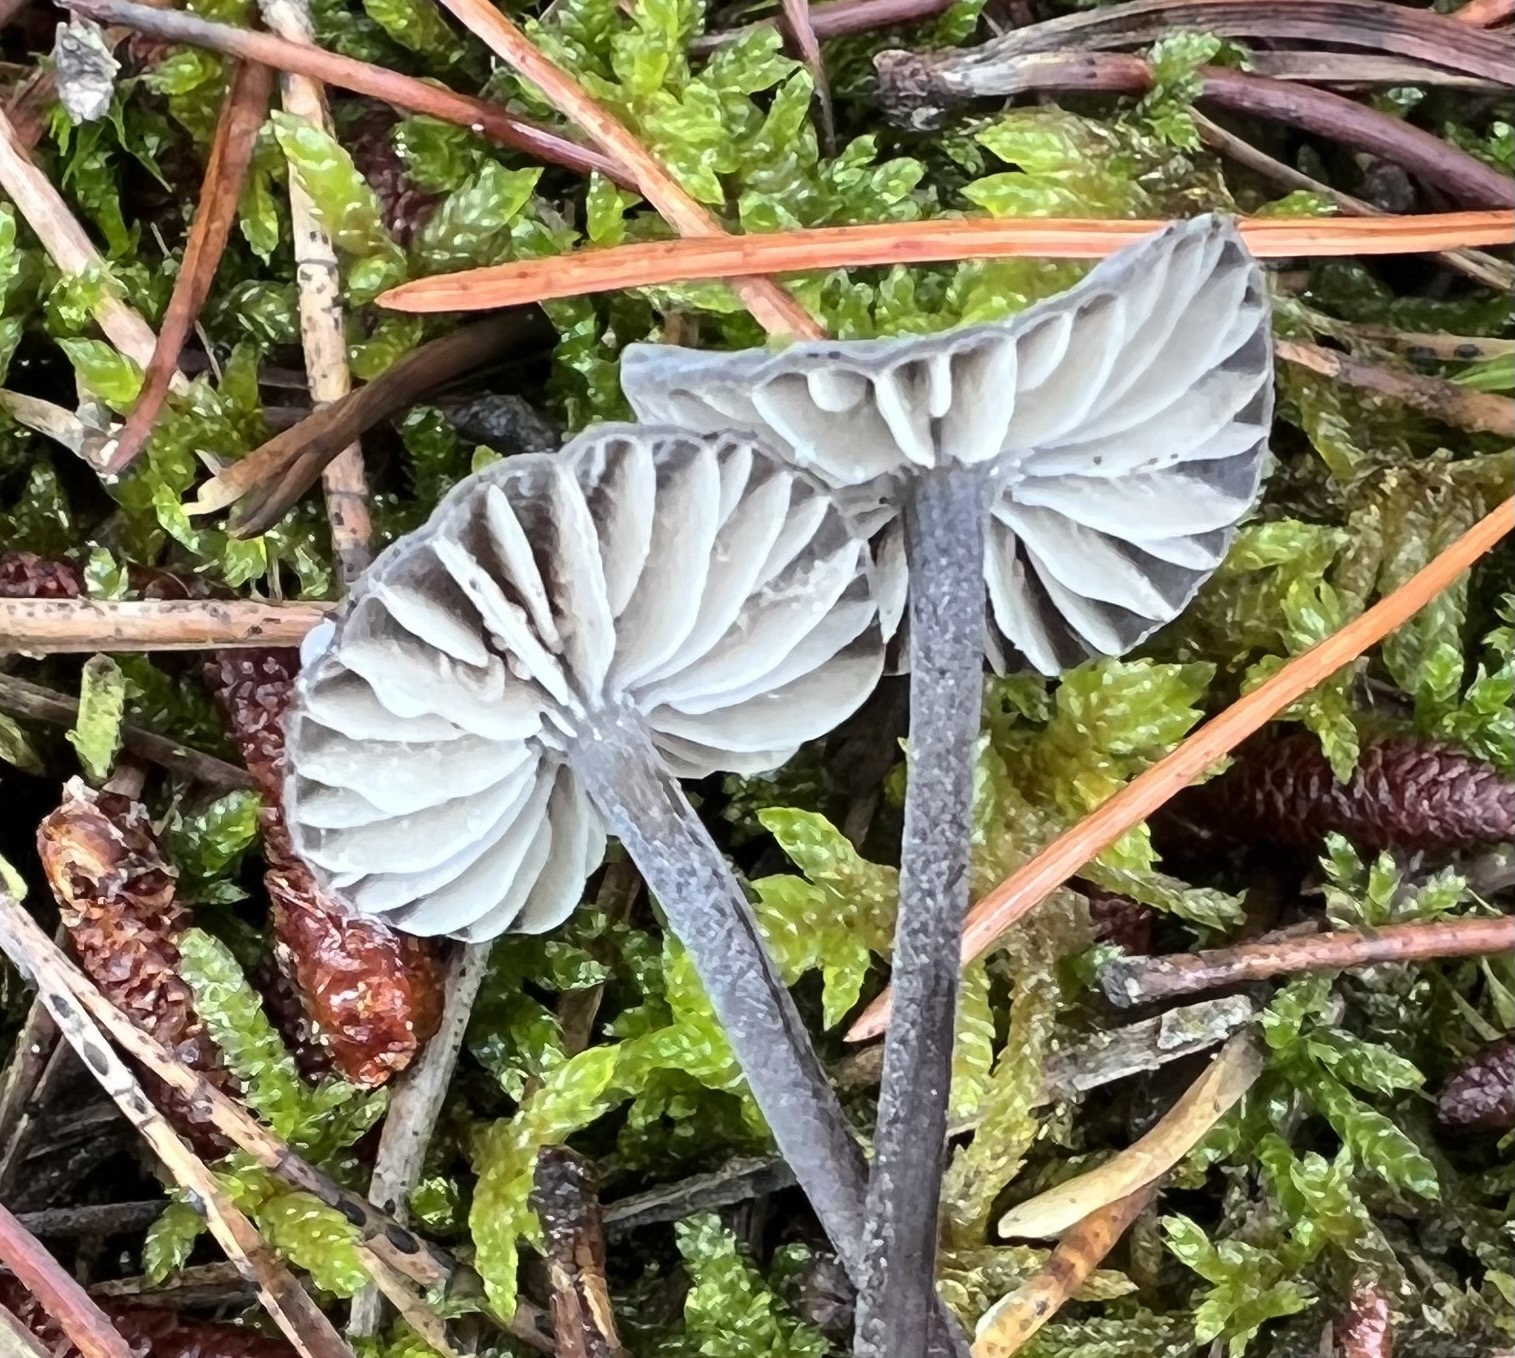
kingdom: Fungi
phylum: Basidiomycota
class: Agaricomycetes
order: Agaricales
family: Mycenaceae
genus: Mycena
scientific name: Mycena galopus
